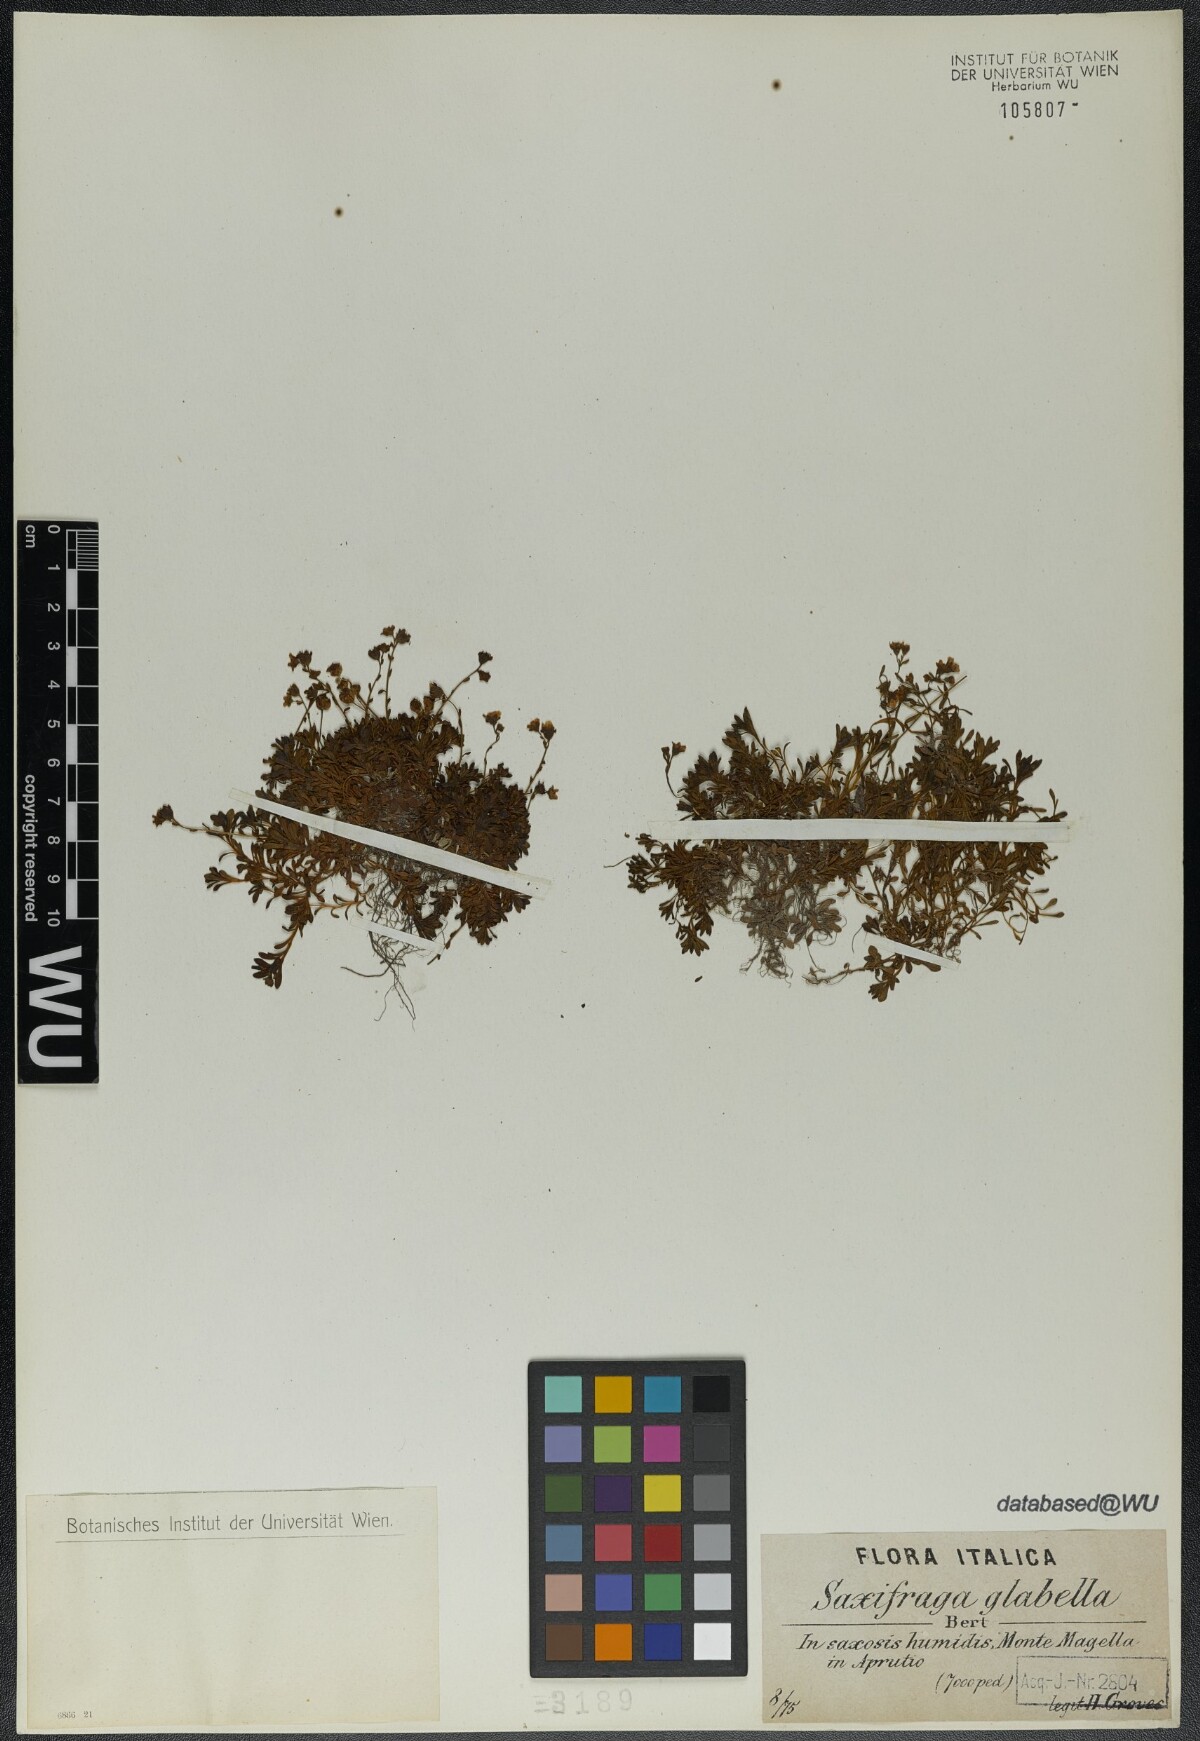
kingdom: Plantae
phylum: Tracheophyta
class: Magnoliopsida
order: Saxifragales
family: Saxifragaceae
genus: Saxifraga
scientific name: Saxifraga glabella
